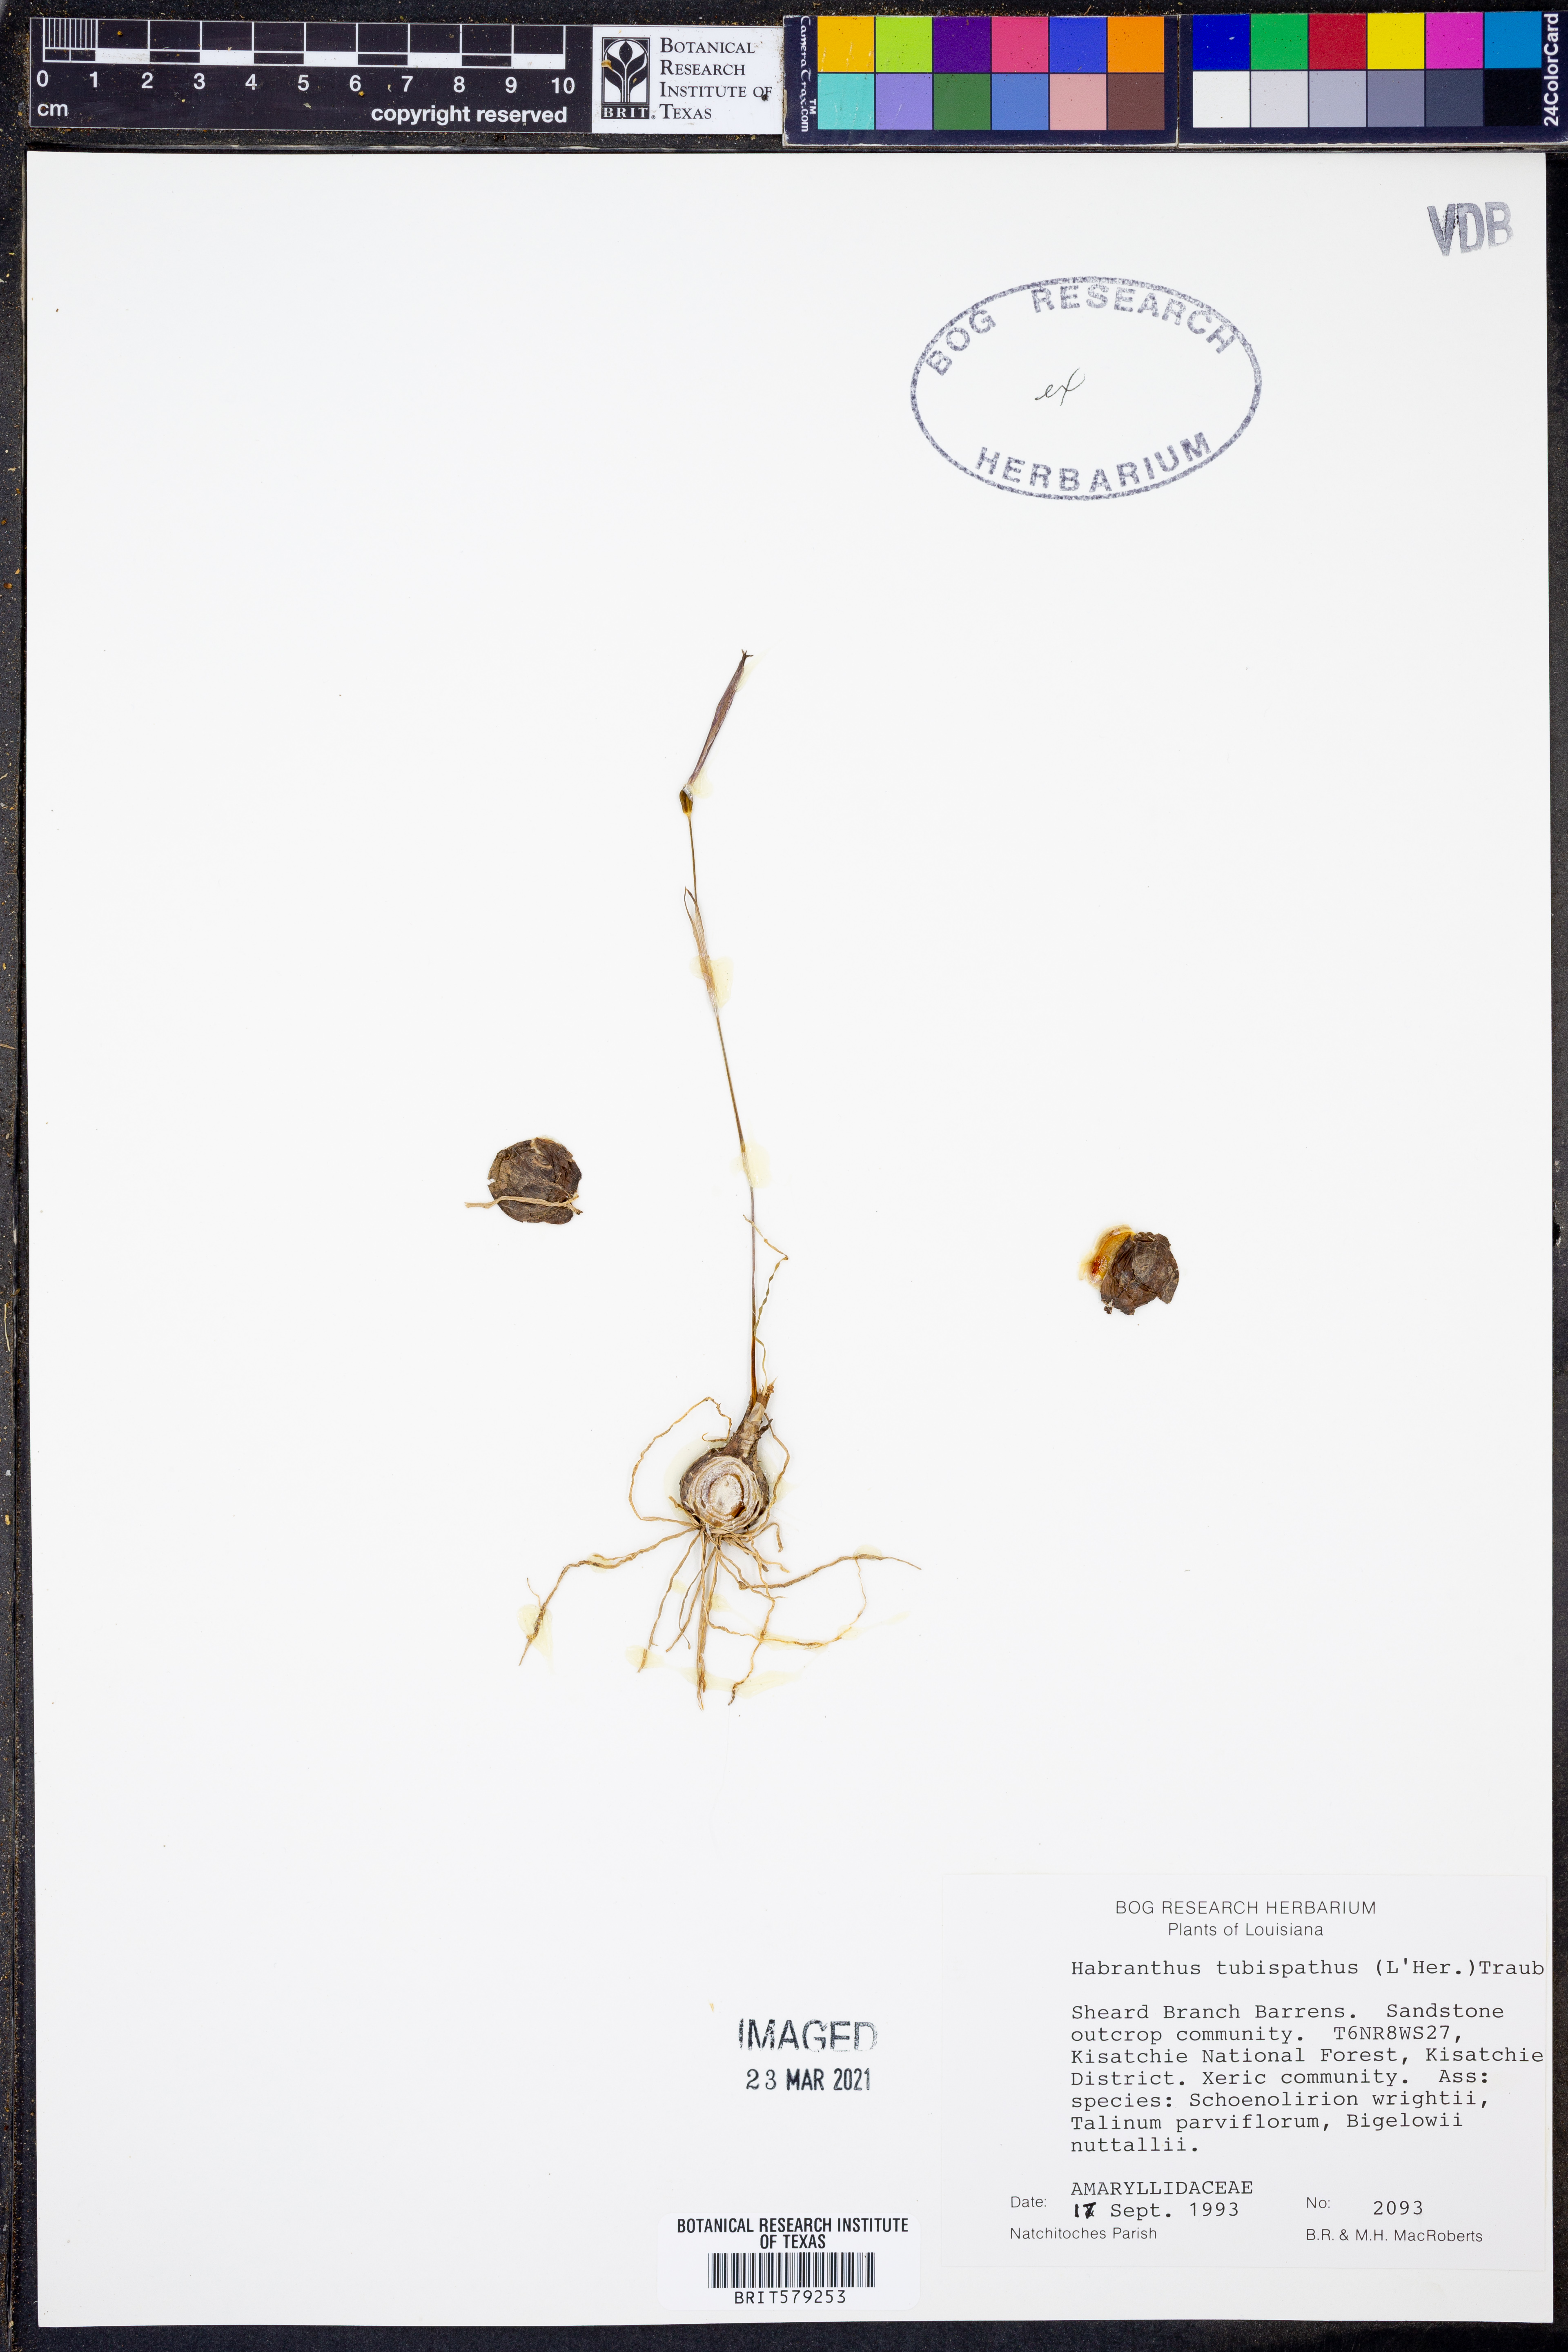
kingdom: Plantae
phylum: Tracheophyta
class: Liliopsida
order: Asparagales
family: Amaryllidaceae
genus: Zephyranthes
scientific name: Zephyranthes tubispatha
